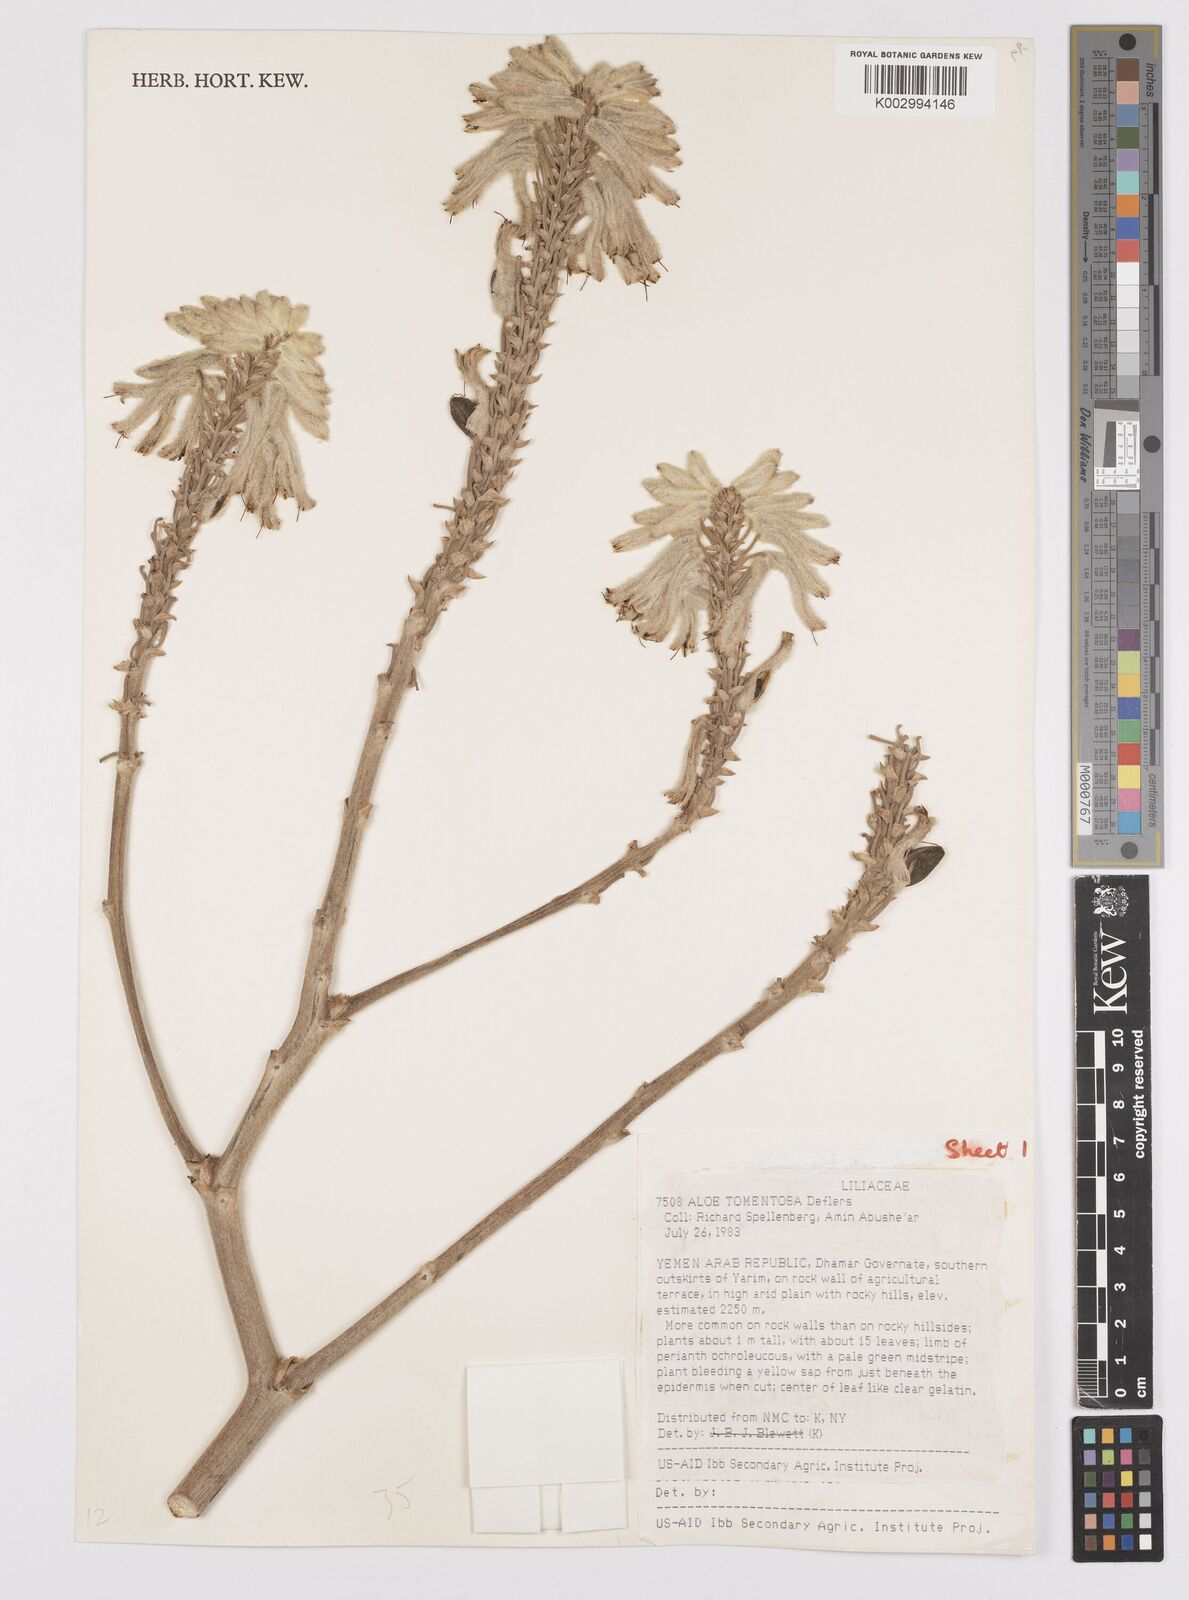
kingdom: Plantae
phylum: Tracheophyta
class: Liliopsida
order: Asparagales
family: Asphodelaceae
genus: Aloe
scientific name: Aloe tomentosa
